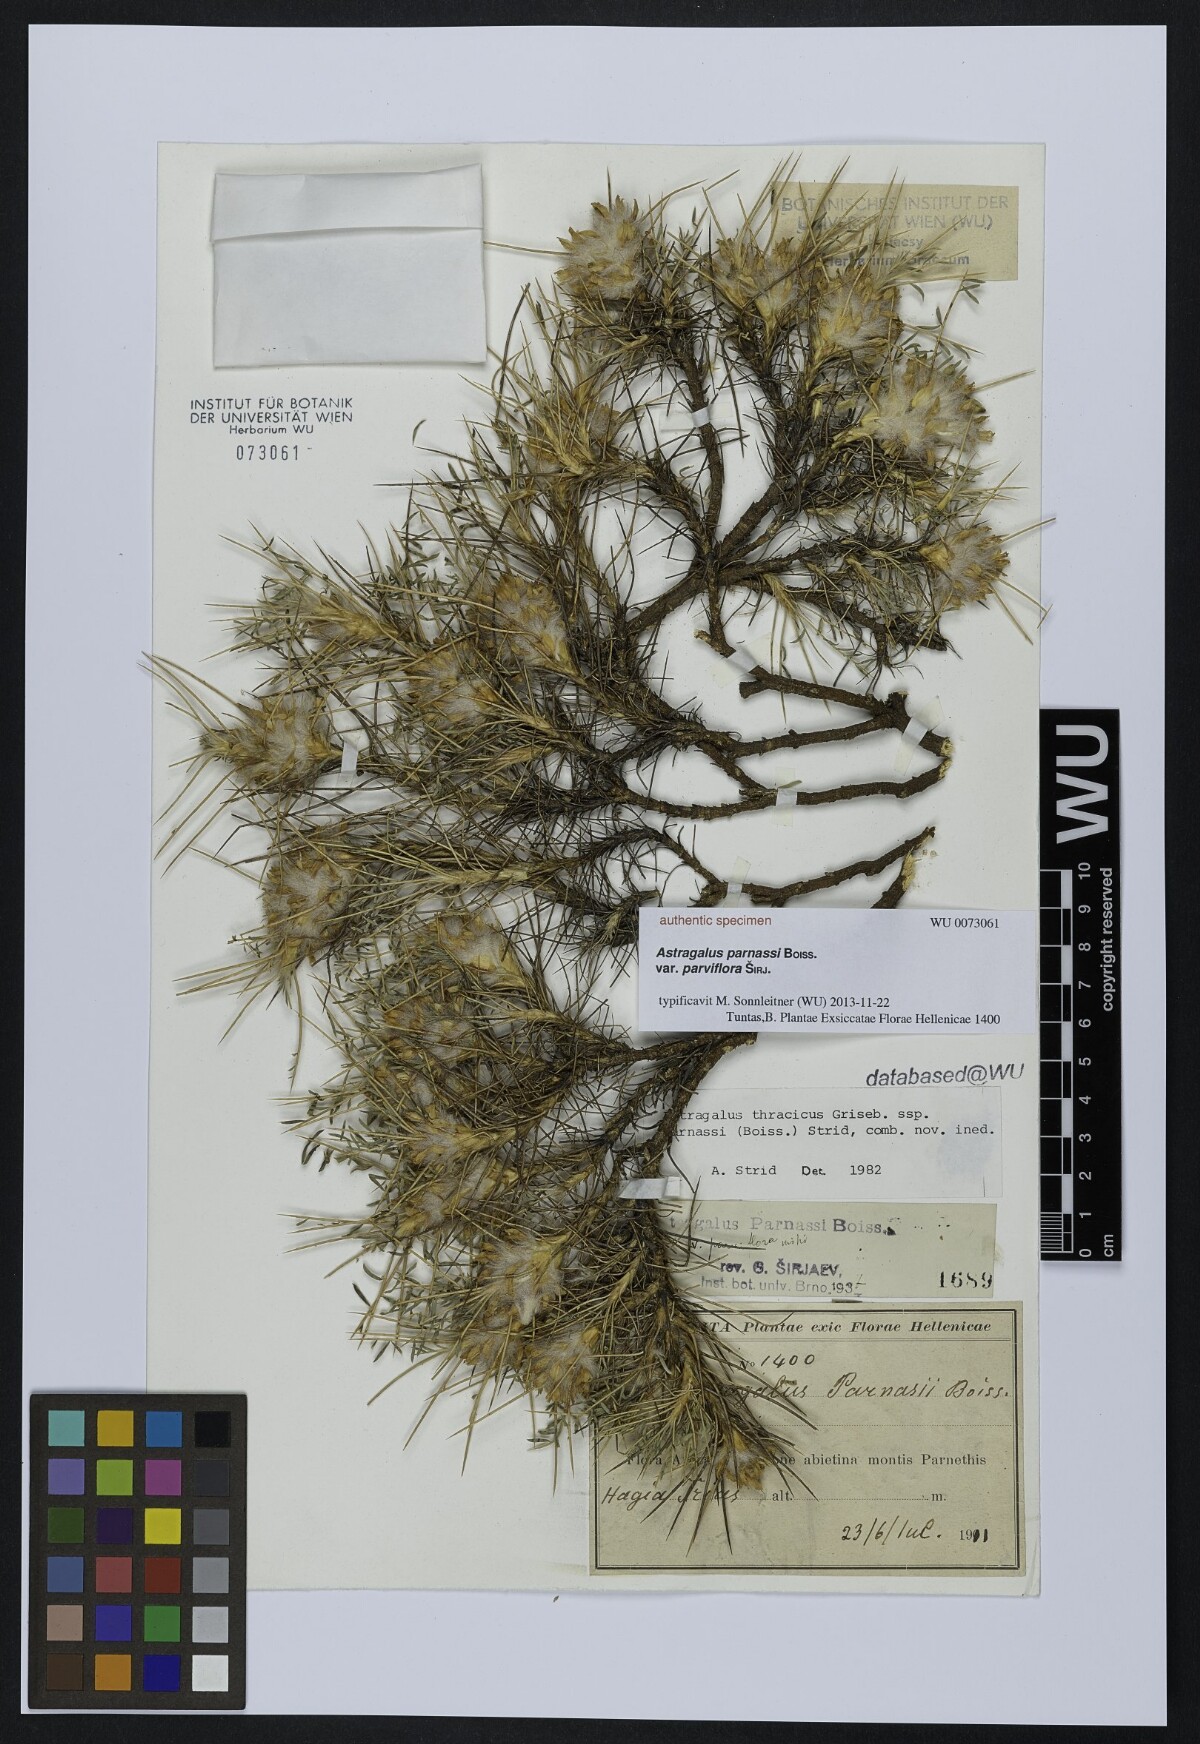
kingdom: Plantae
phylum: Tracheophyta
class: Magnoliopsida
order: Fabales
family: Fabaceae
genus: Astragalus
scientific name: Astragalus parnassi
